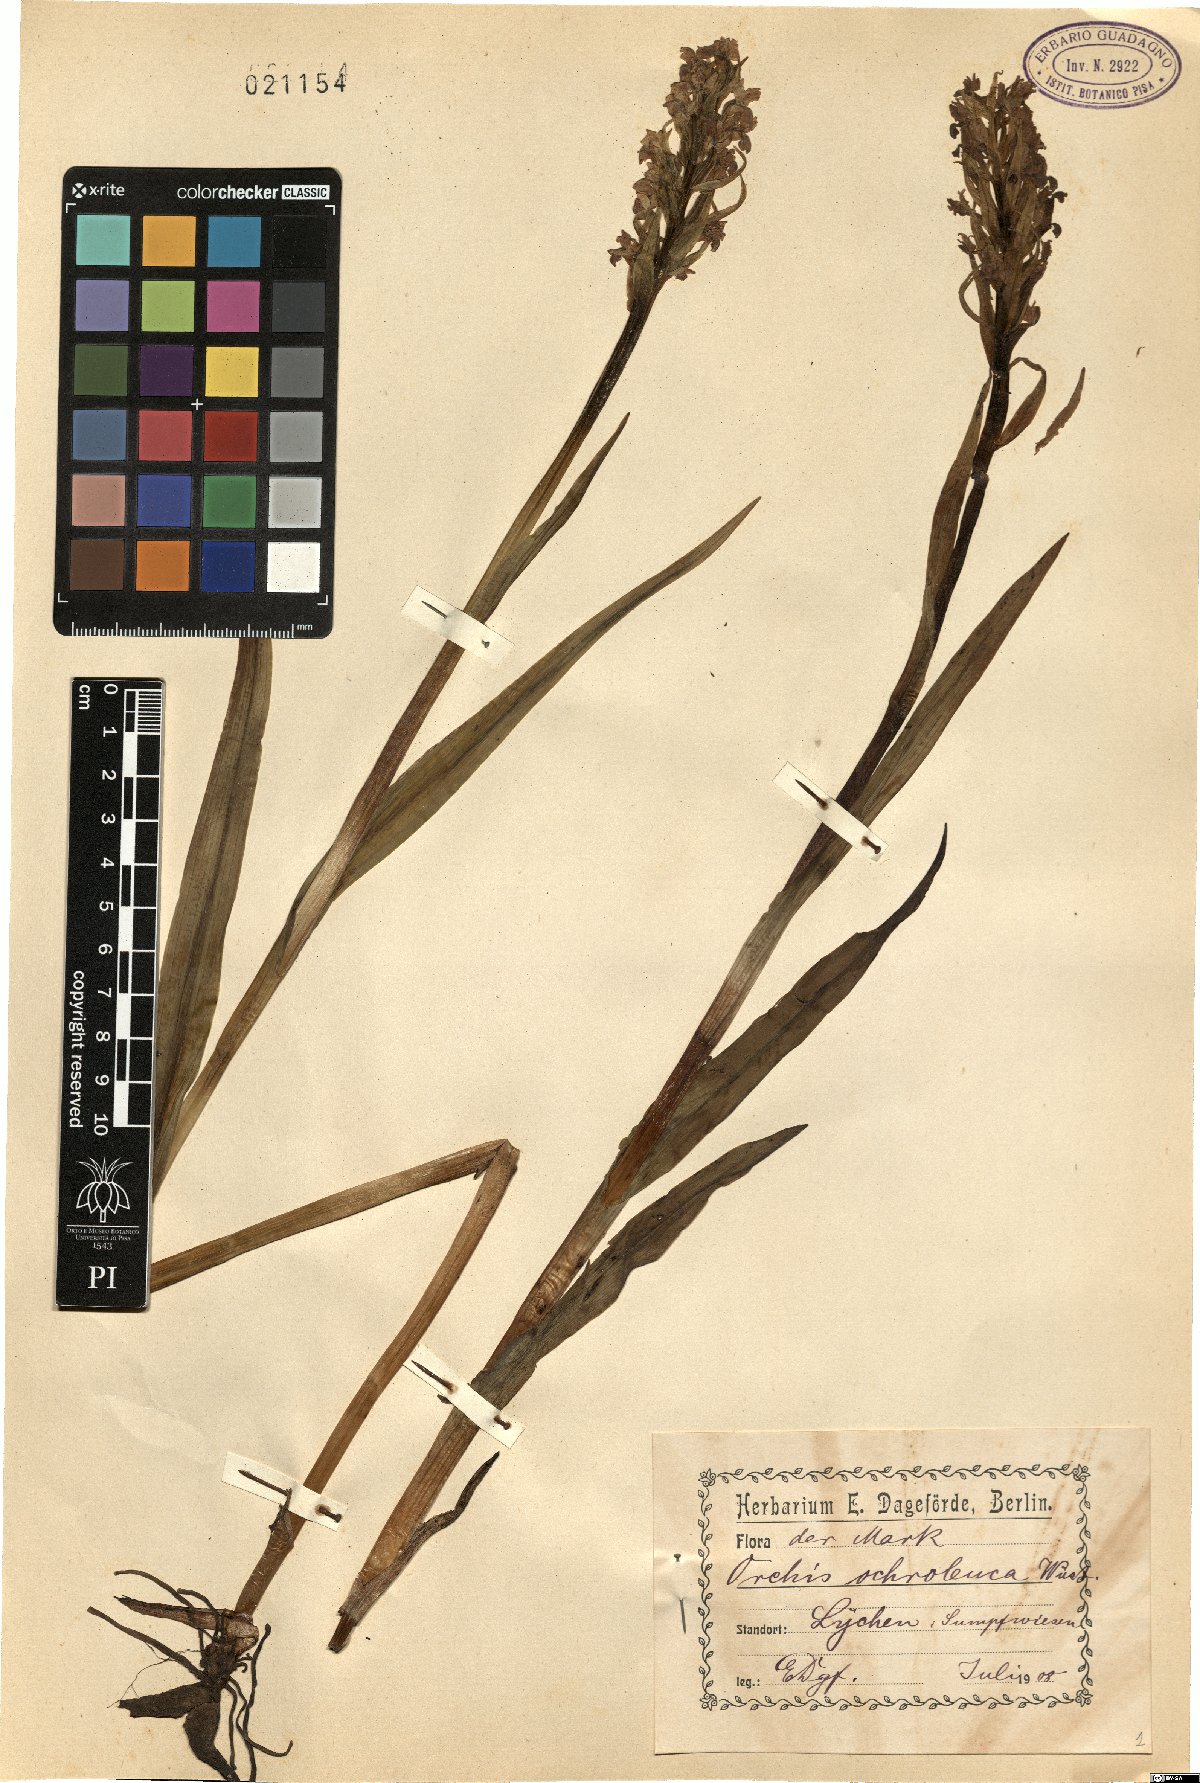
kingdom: Plantae
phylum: Tracheophyta
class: Liliopsida
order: Asparagales
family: Orchidaceae
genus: Platanthera
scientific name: Platanthera bifolia
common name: Lesser butterfly-orchid
